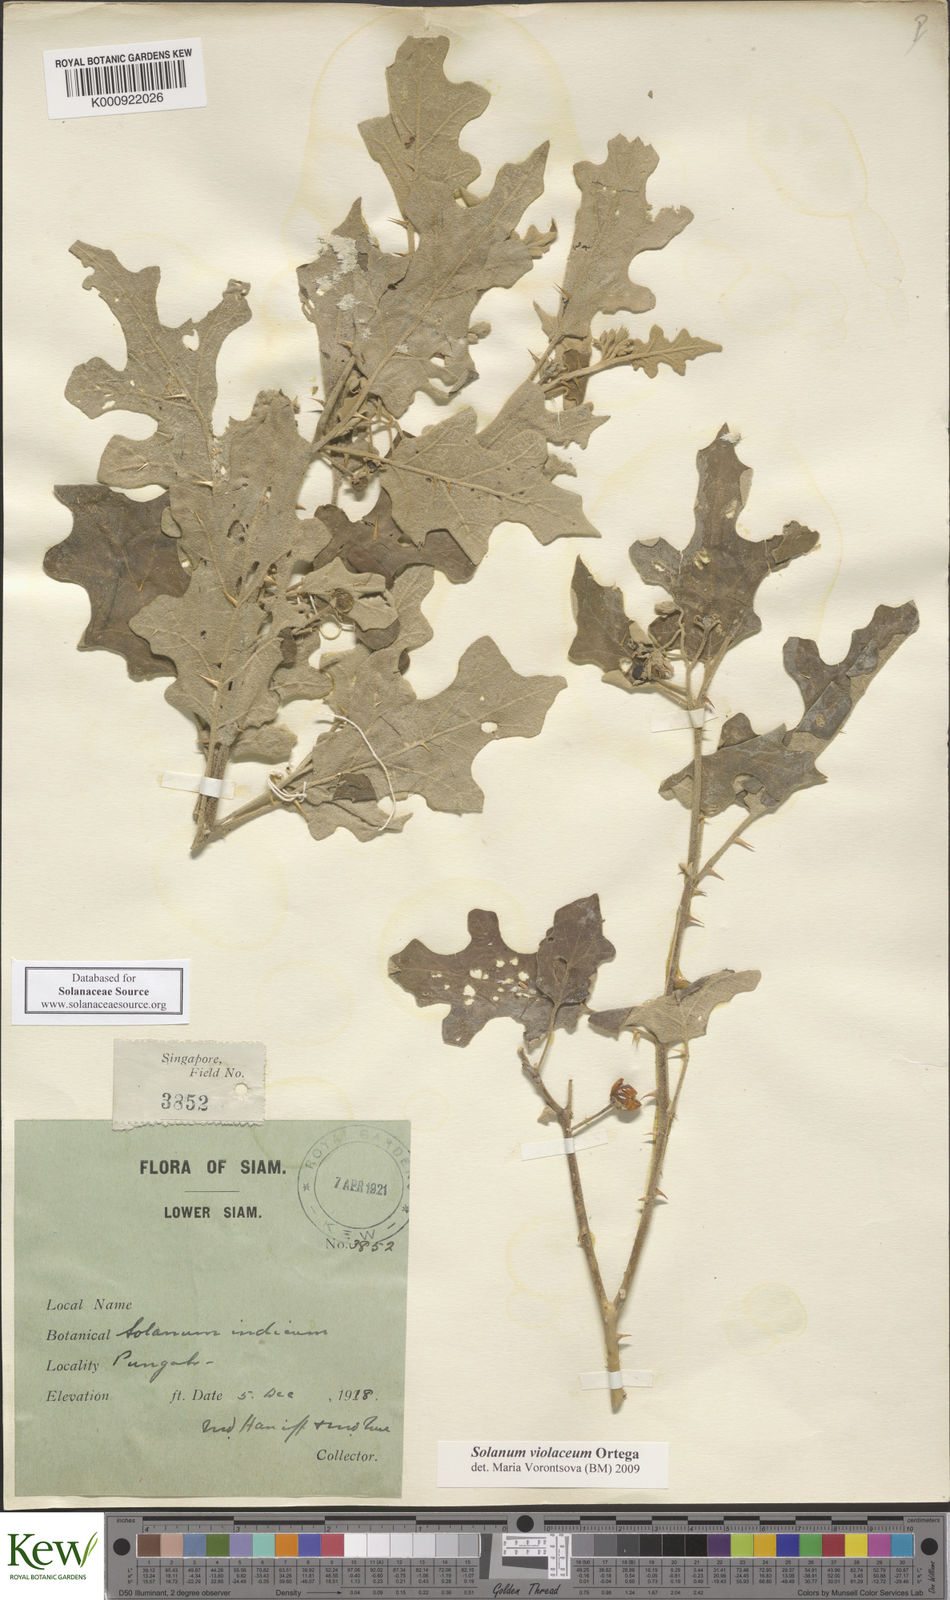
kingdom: Plantae
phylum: Tracheophyta
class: Magnoliopsida
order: Solanales
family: Solanaceae
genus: Solanum
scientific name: Solanum violaceum
